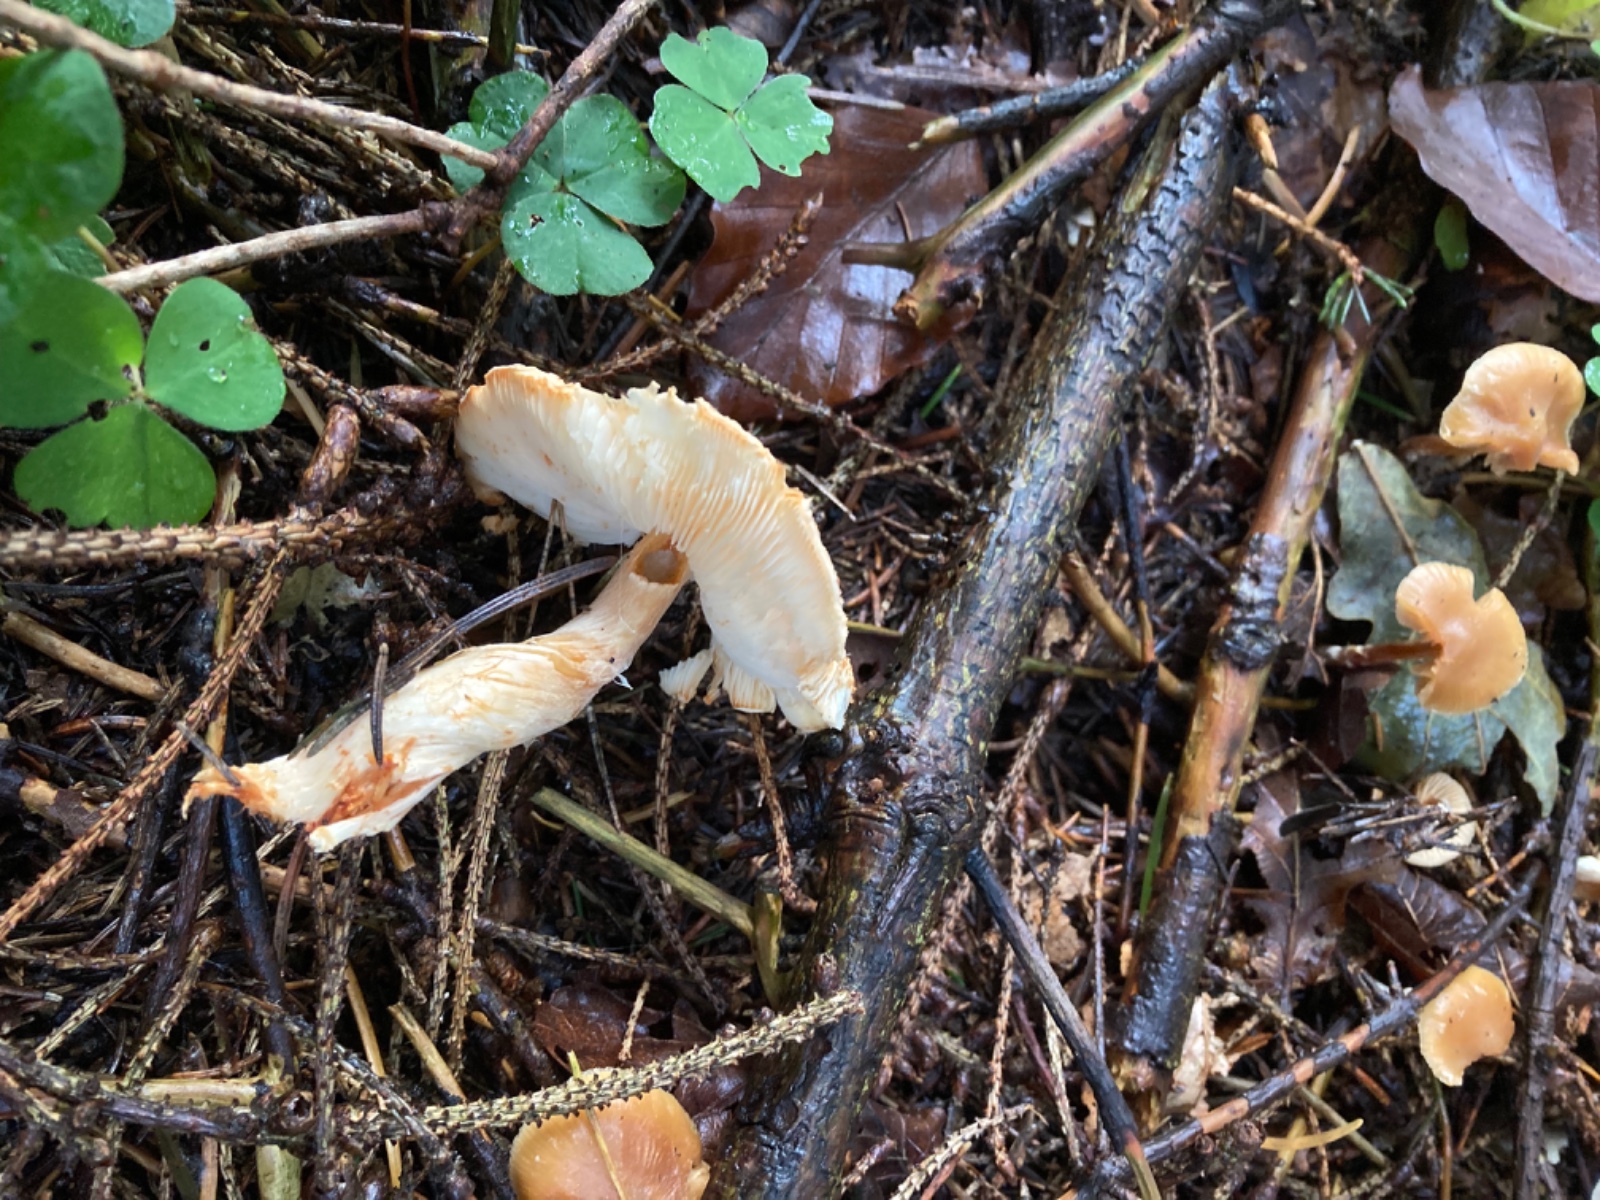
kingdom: Fungi
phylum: Basidiomycota
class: Agaricomycetes
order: Agaricales
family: Agaricaceae
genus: Lepiota
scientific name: Lepiota ochraceofulva
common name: sødtduftende parasolhat
